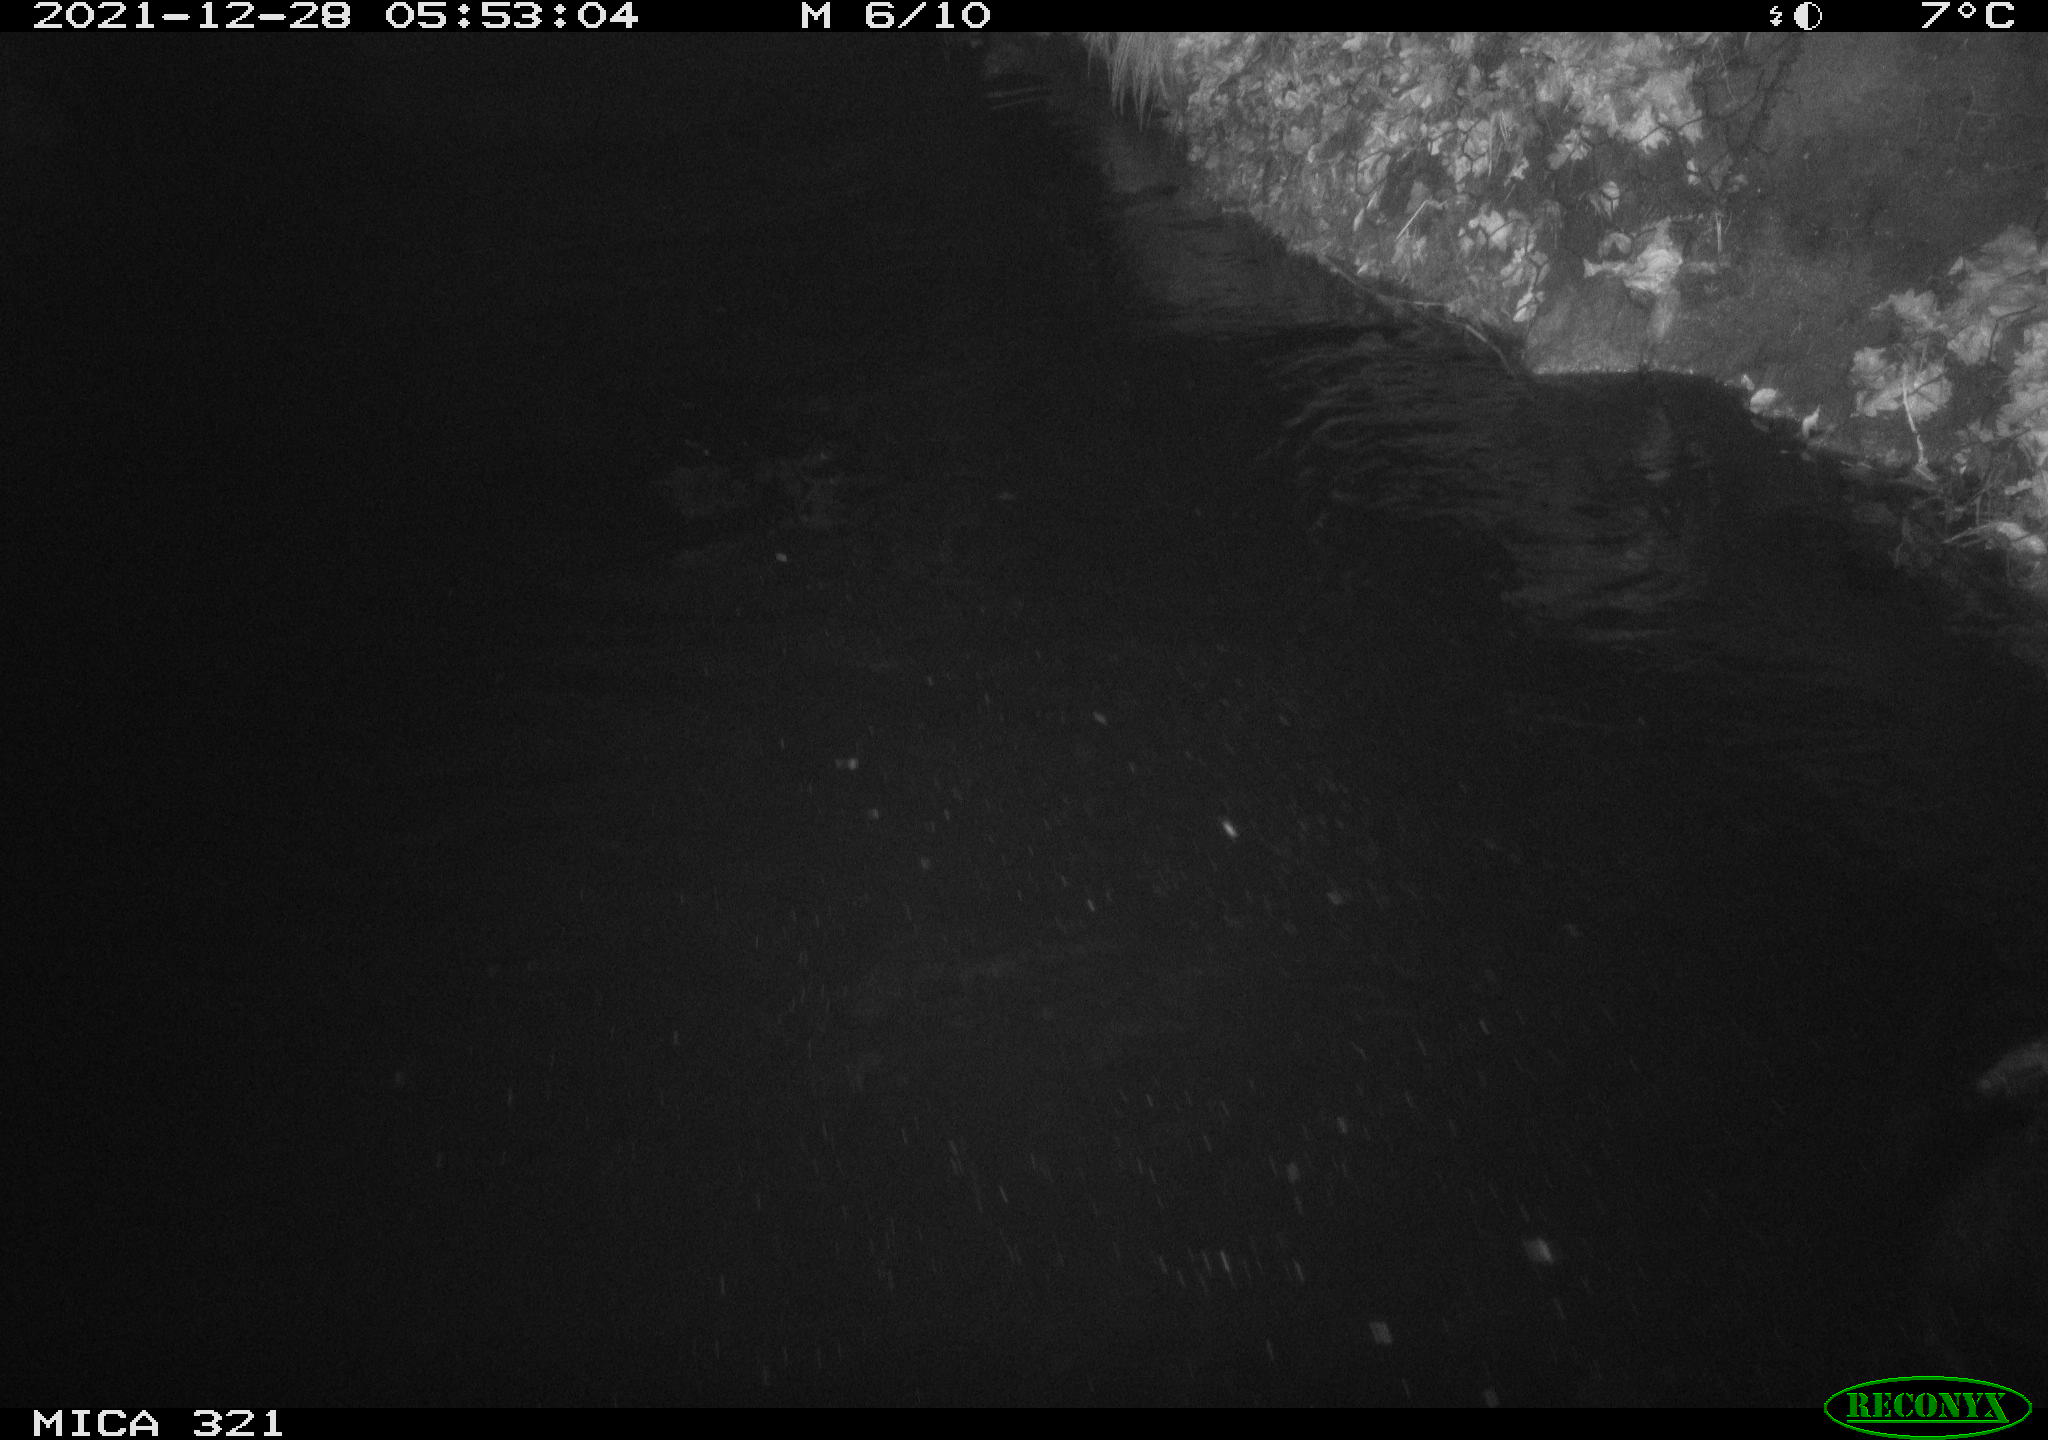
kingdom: Animalia
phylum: Chordata
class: Aves
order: Anseriformes
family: Anatidae
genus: Anas
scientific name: Anas
